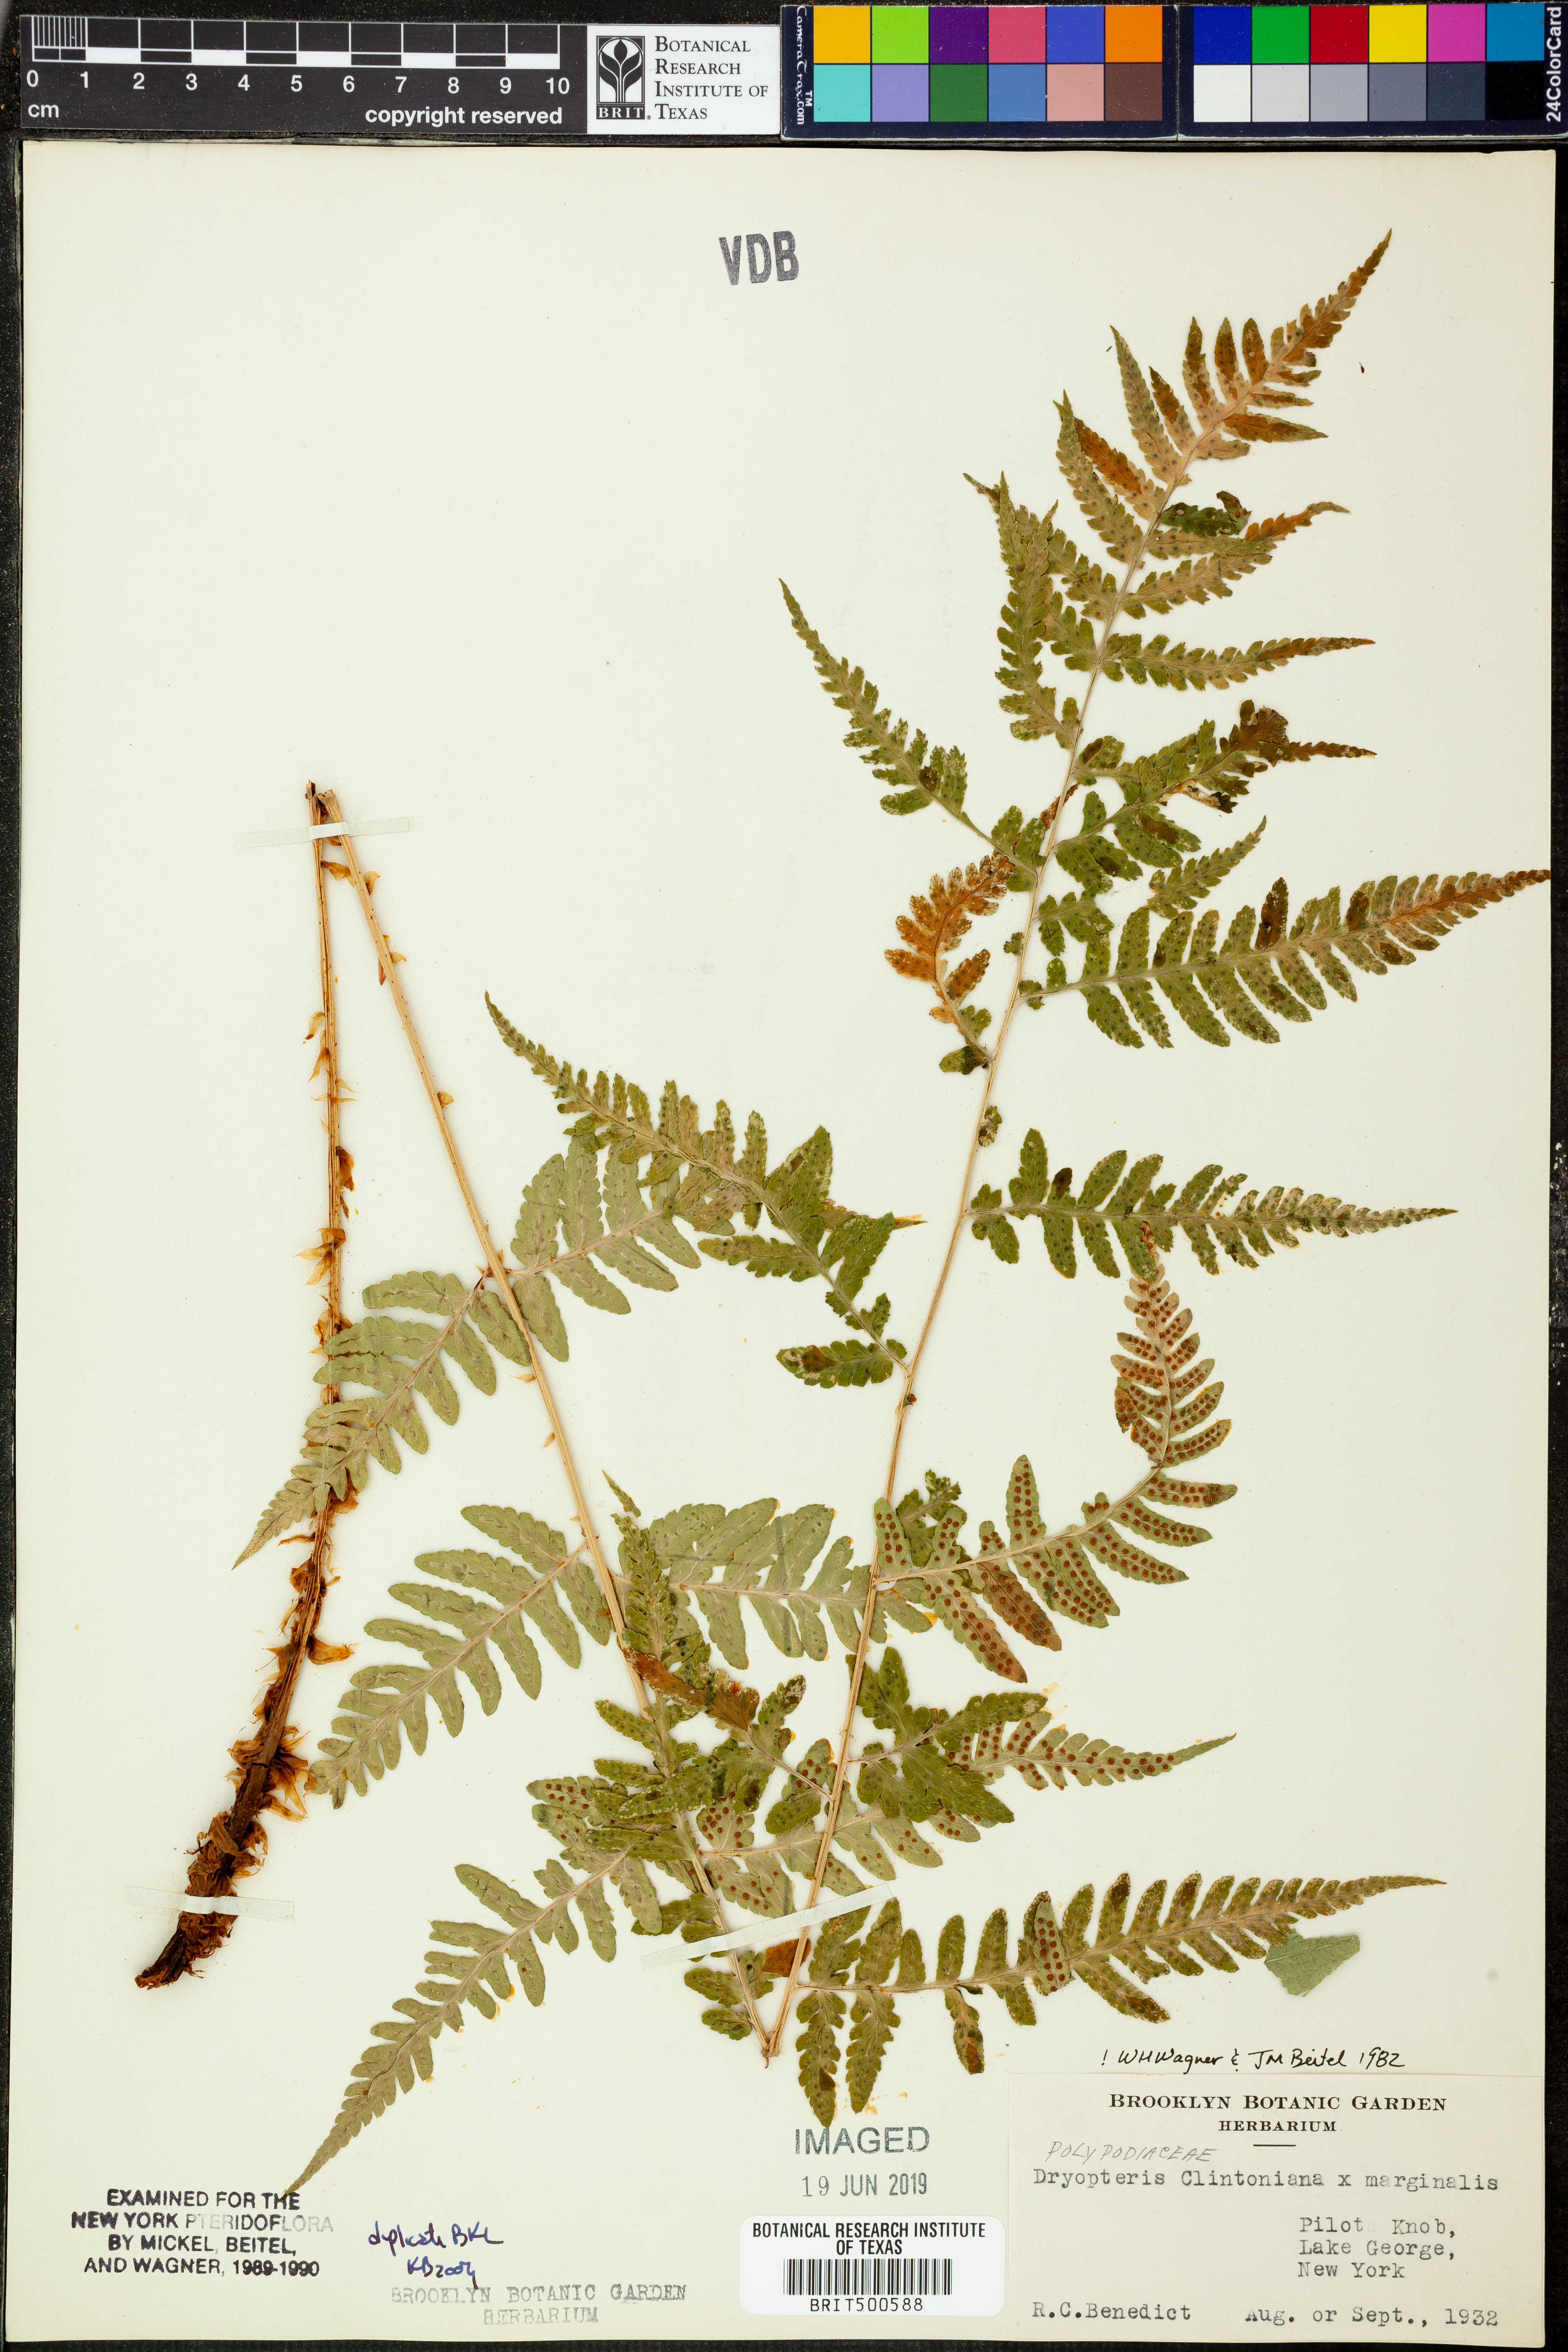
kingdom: Plantae
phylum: Tracheophyta
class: Polypodiopsida
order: Polypodiales
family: Dryopteridaceae
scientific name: Dryopteridaceae
